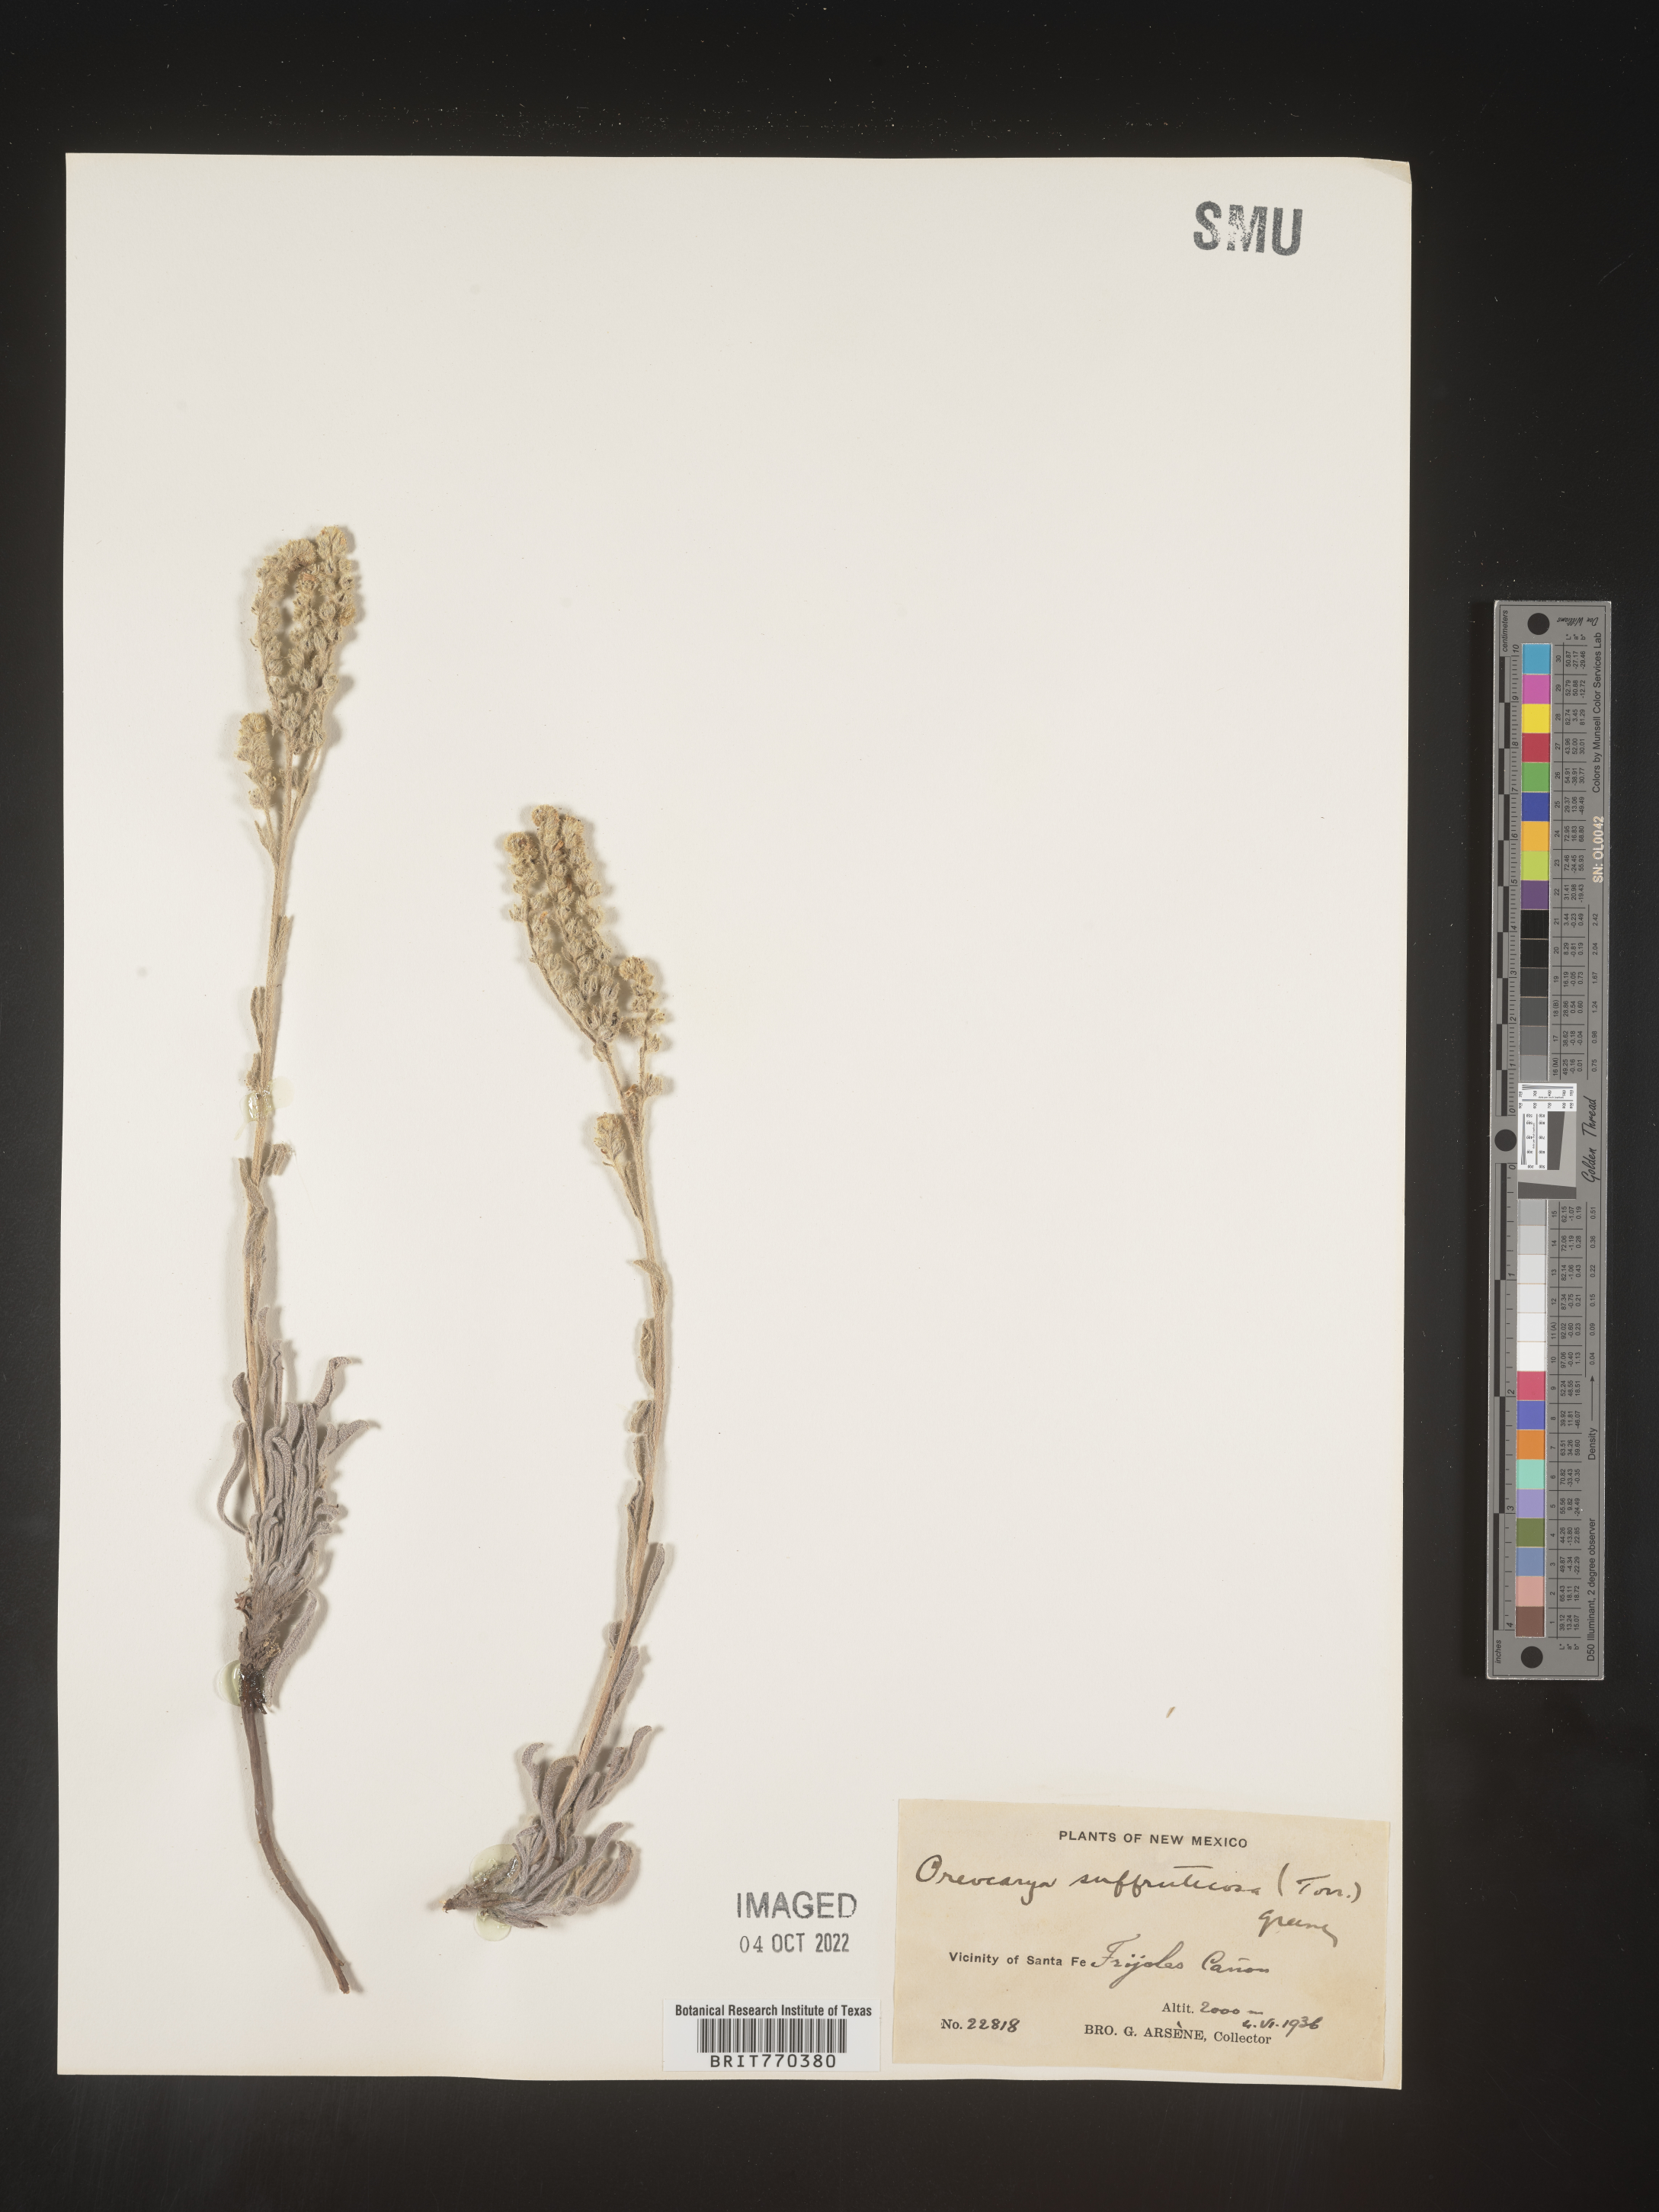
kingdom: Plantae
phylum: Tracheophyta
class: Magnoliopsida
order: Boraginales
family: Boraginaceae
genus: Oreocarya
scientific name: Oreocarya
